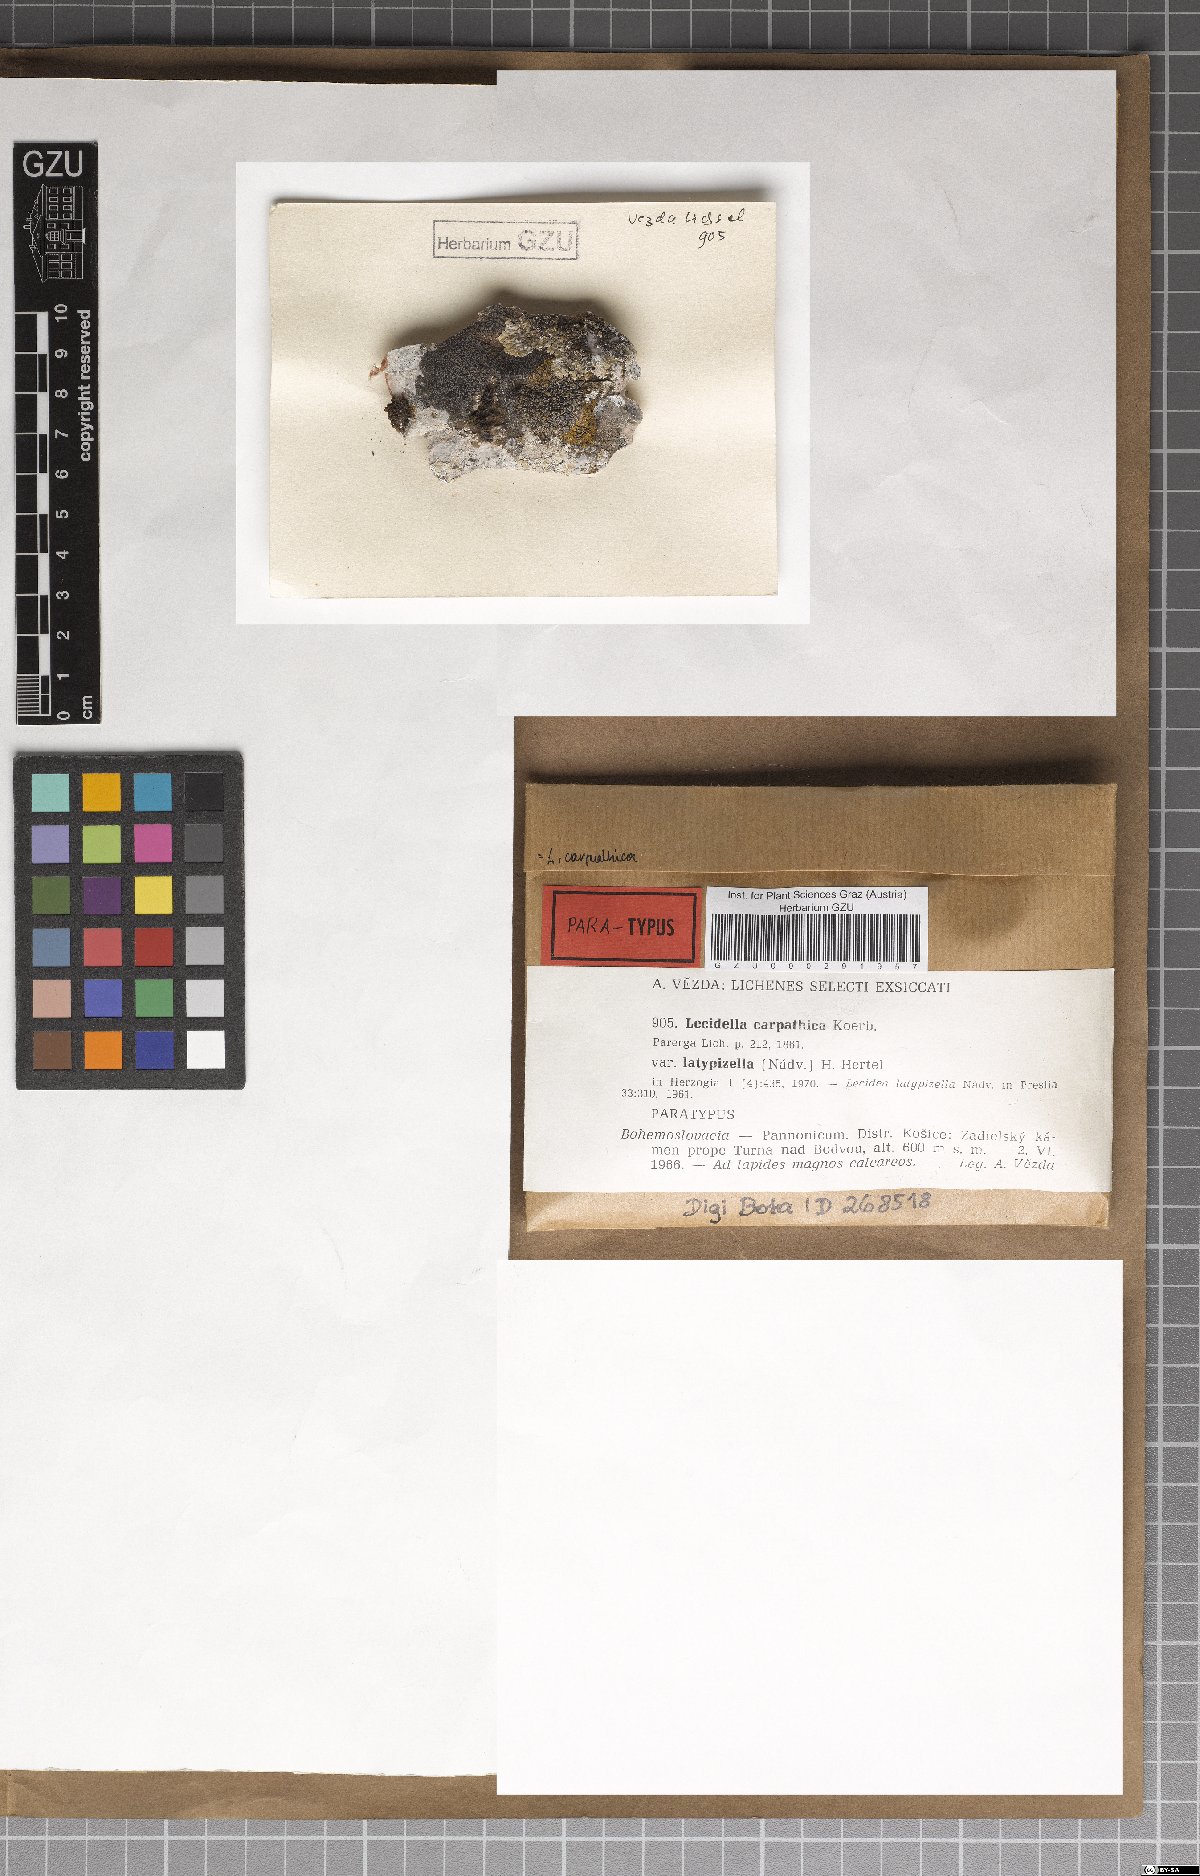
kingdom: Fungi
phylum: Ascomycota
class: Lecanoromycetes
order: Lecanorales
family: Lecanoraceae
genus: Lecidella
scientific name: Lecidella carpathica
